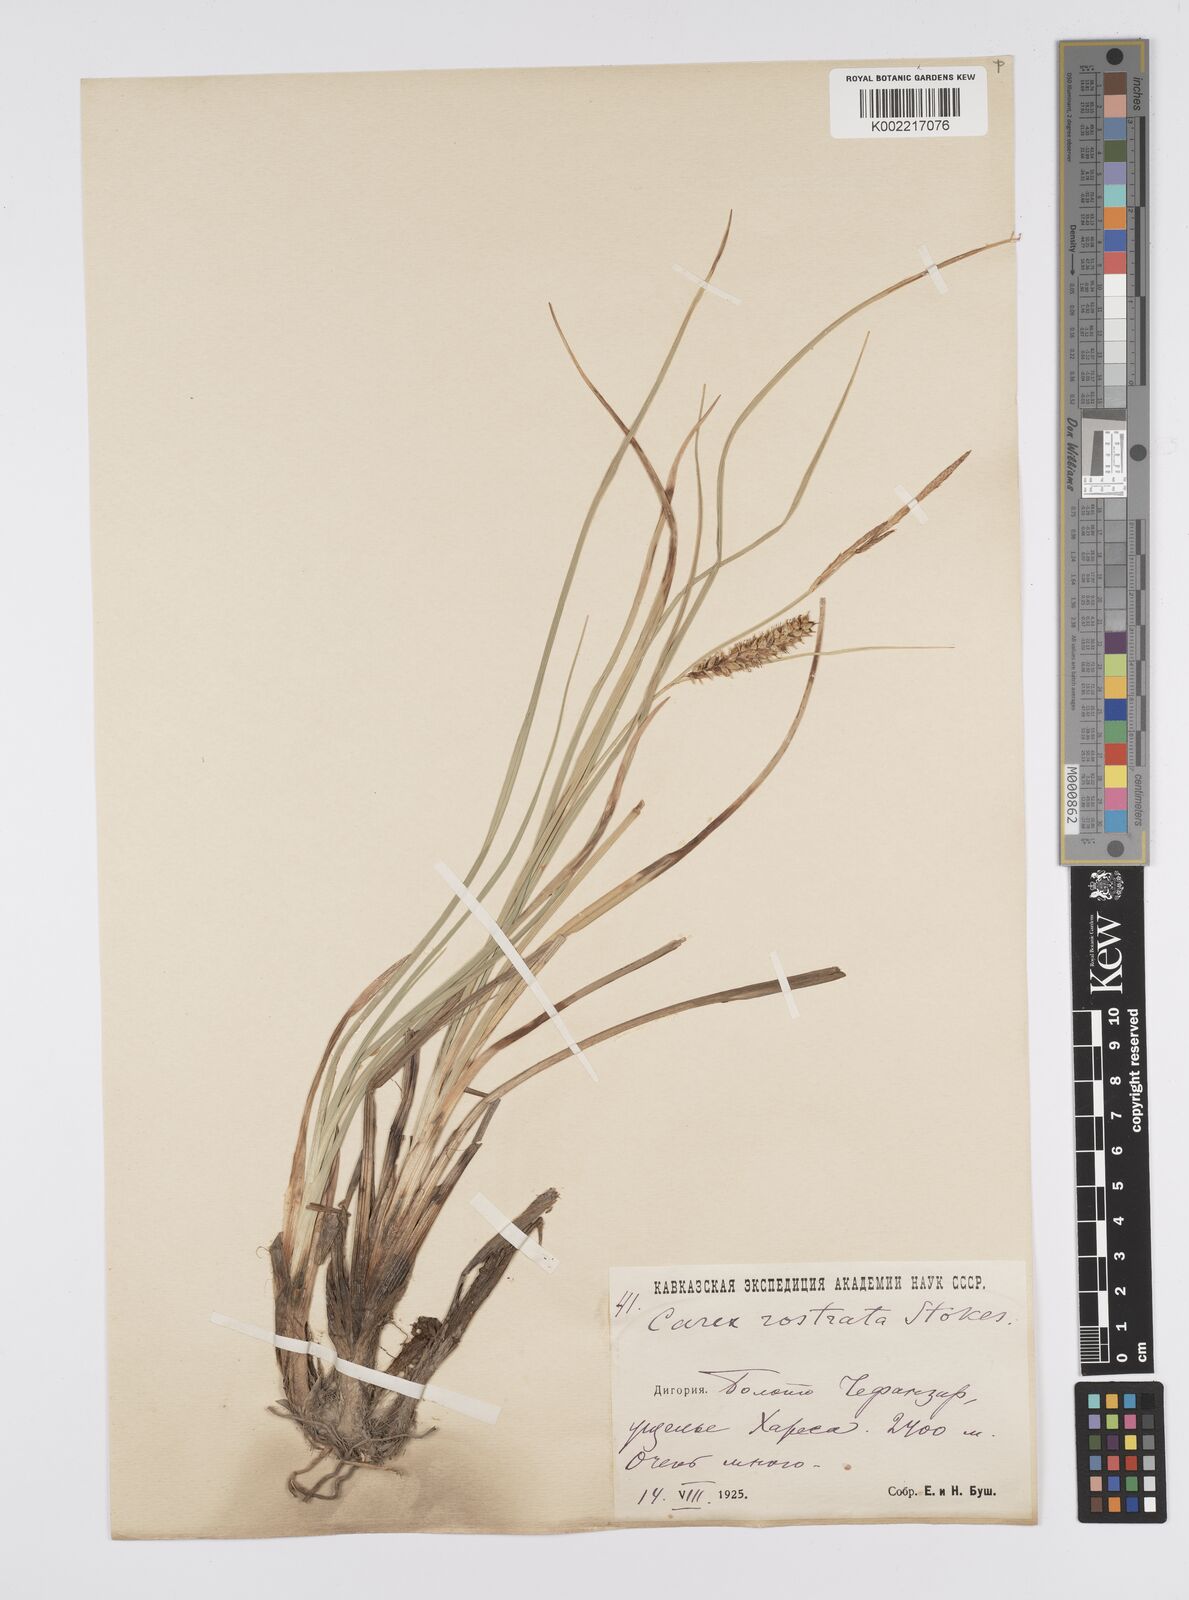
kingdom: Plantae
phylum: Tracheophyta
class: Liliopsida
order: Poales
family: Cyperaceae
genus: Carex
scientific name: Carex rostrata
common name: Bottle sedge
